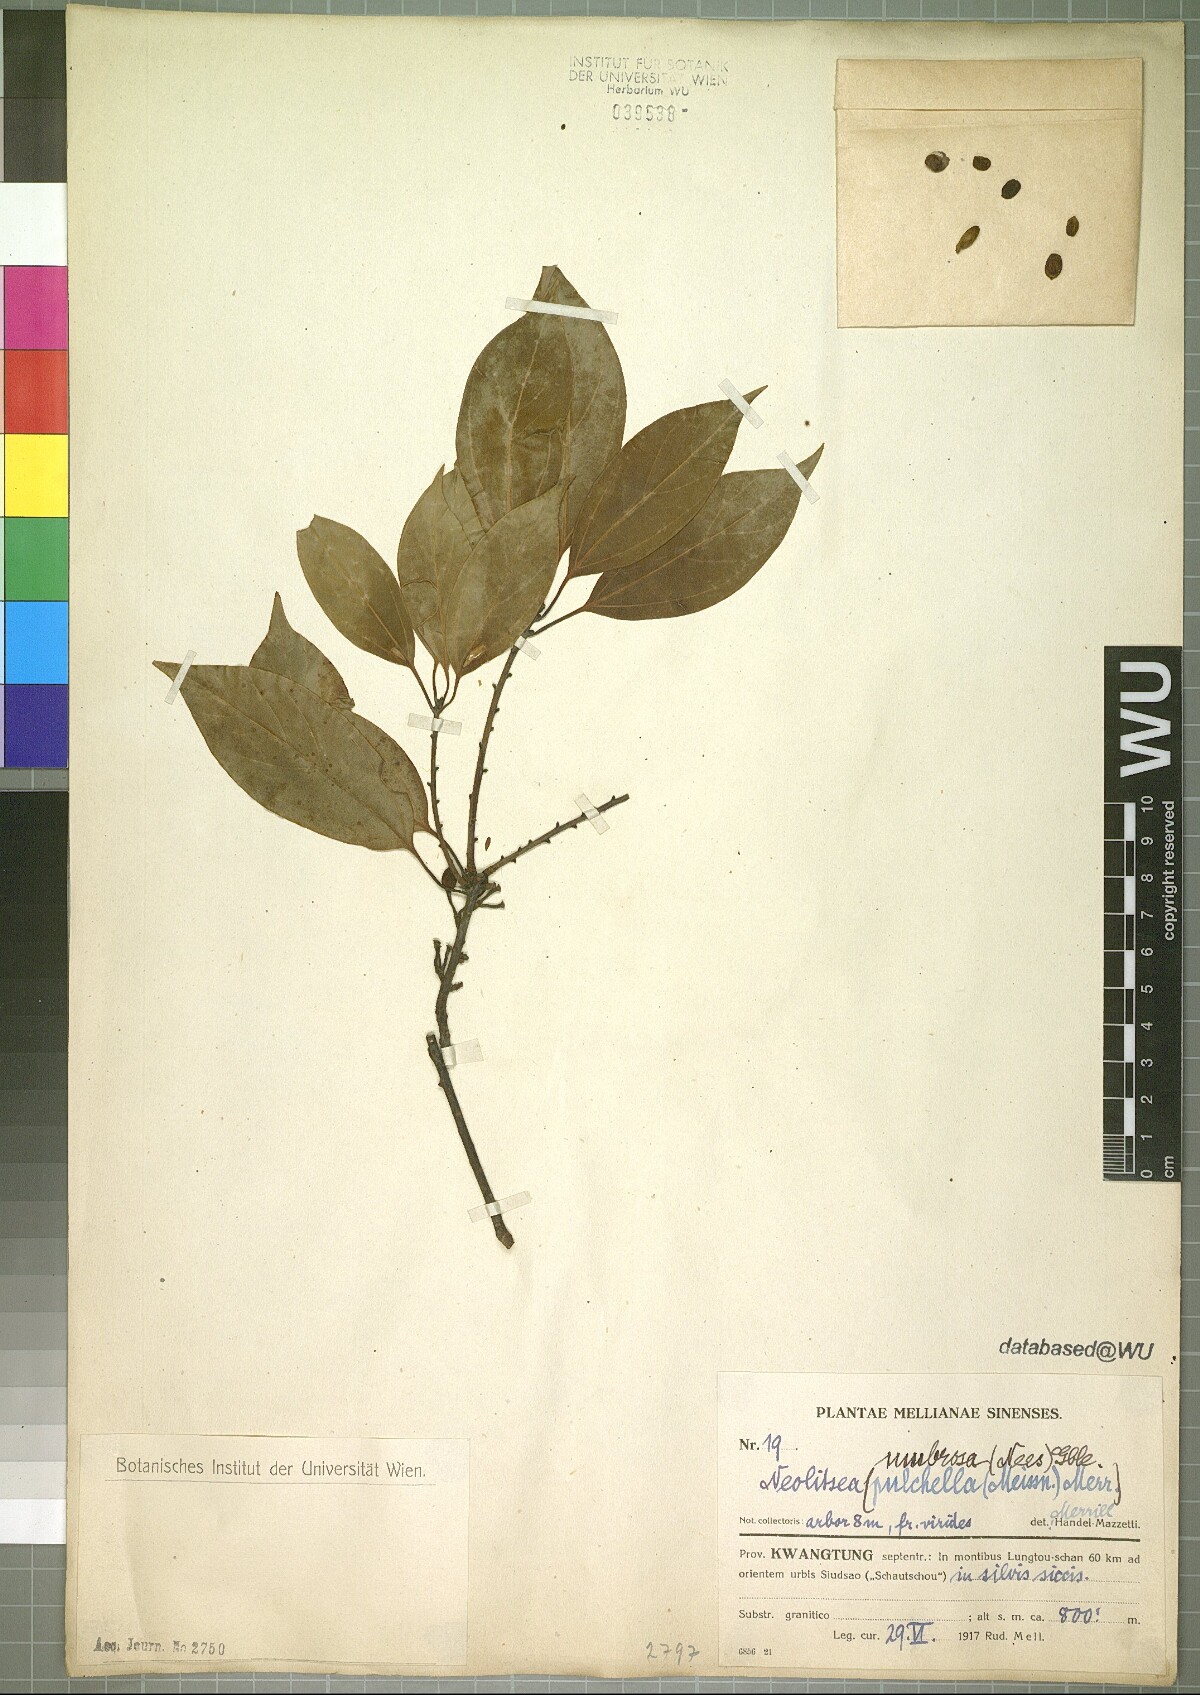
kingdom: Plantae
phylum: Tracheophyta
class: Magnoliopsida
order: Laurales
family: Lauraceae
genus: Neolitsea
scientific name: Neolitsea umbrosa
